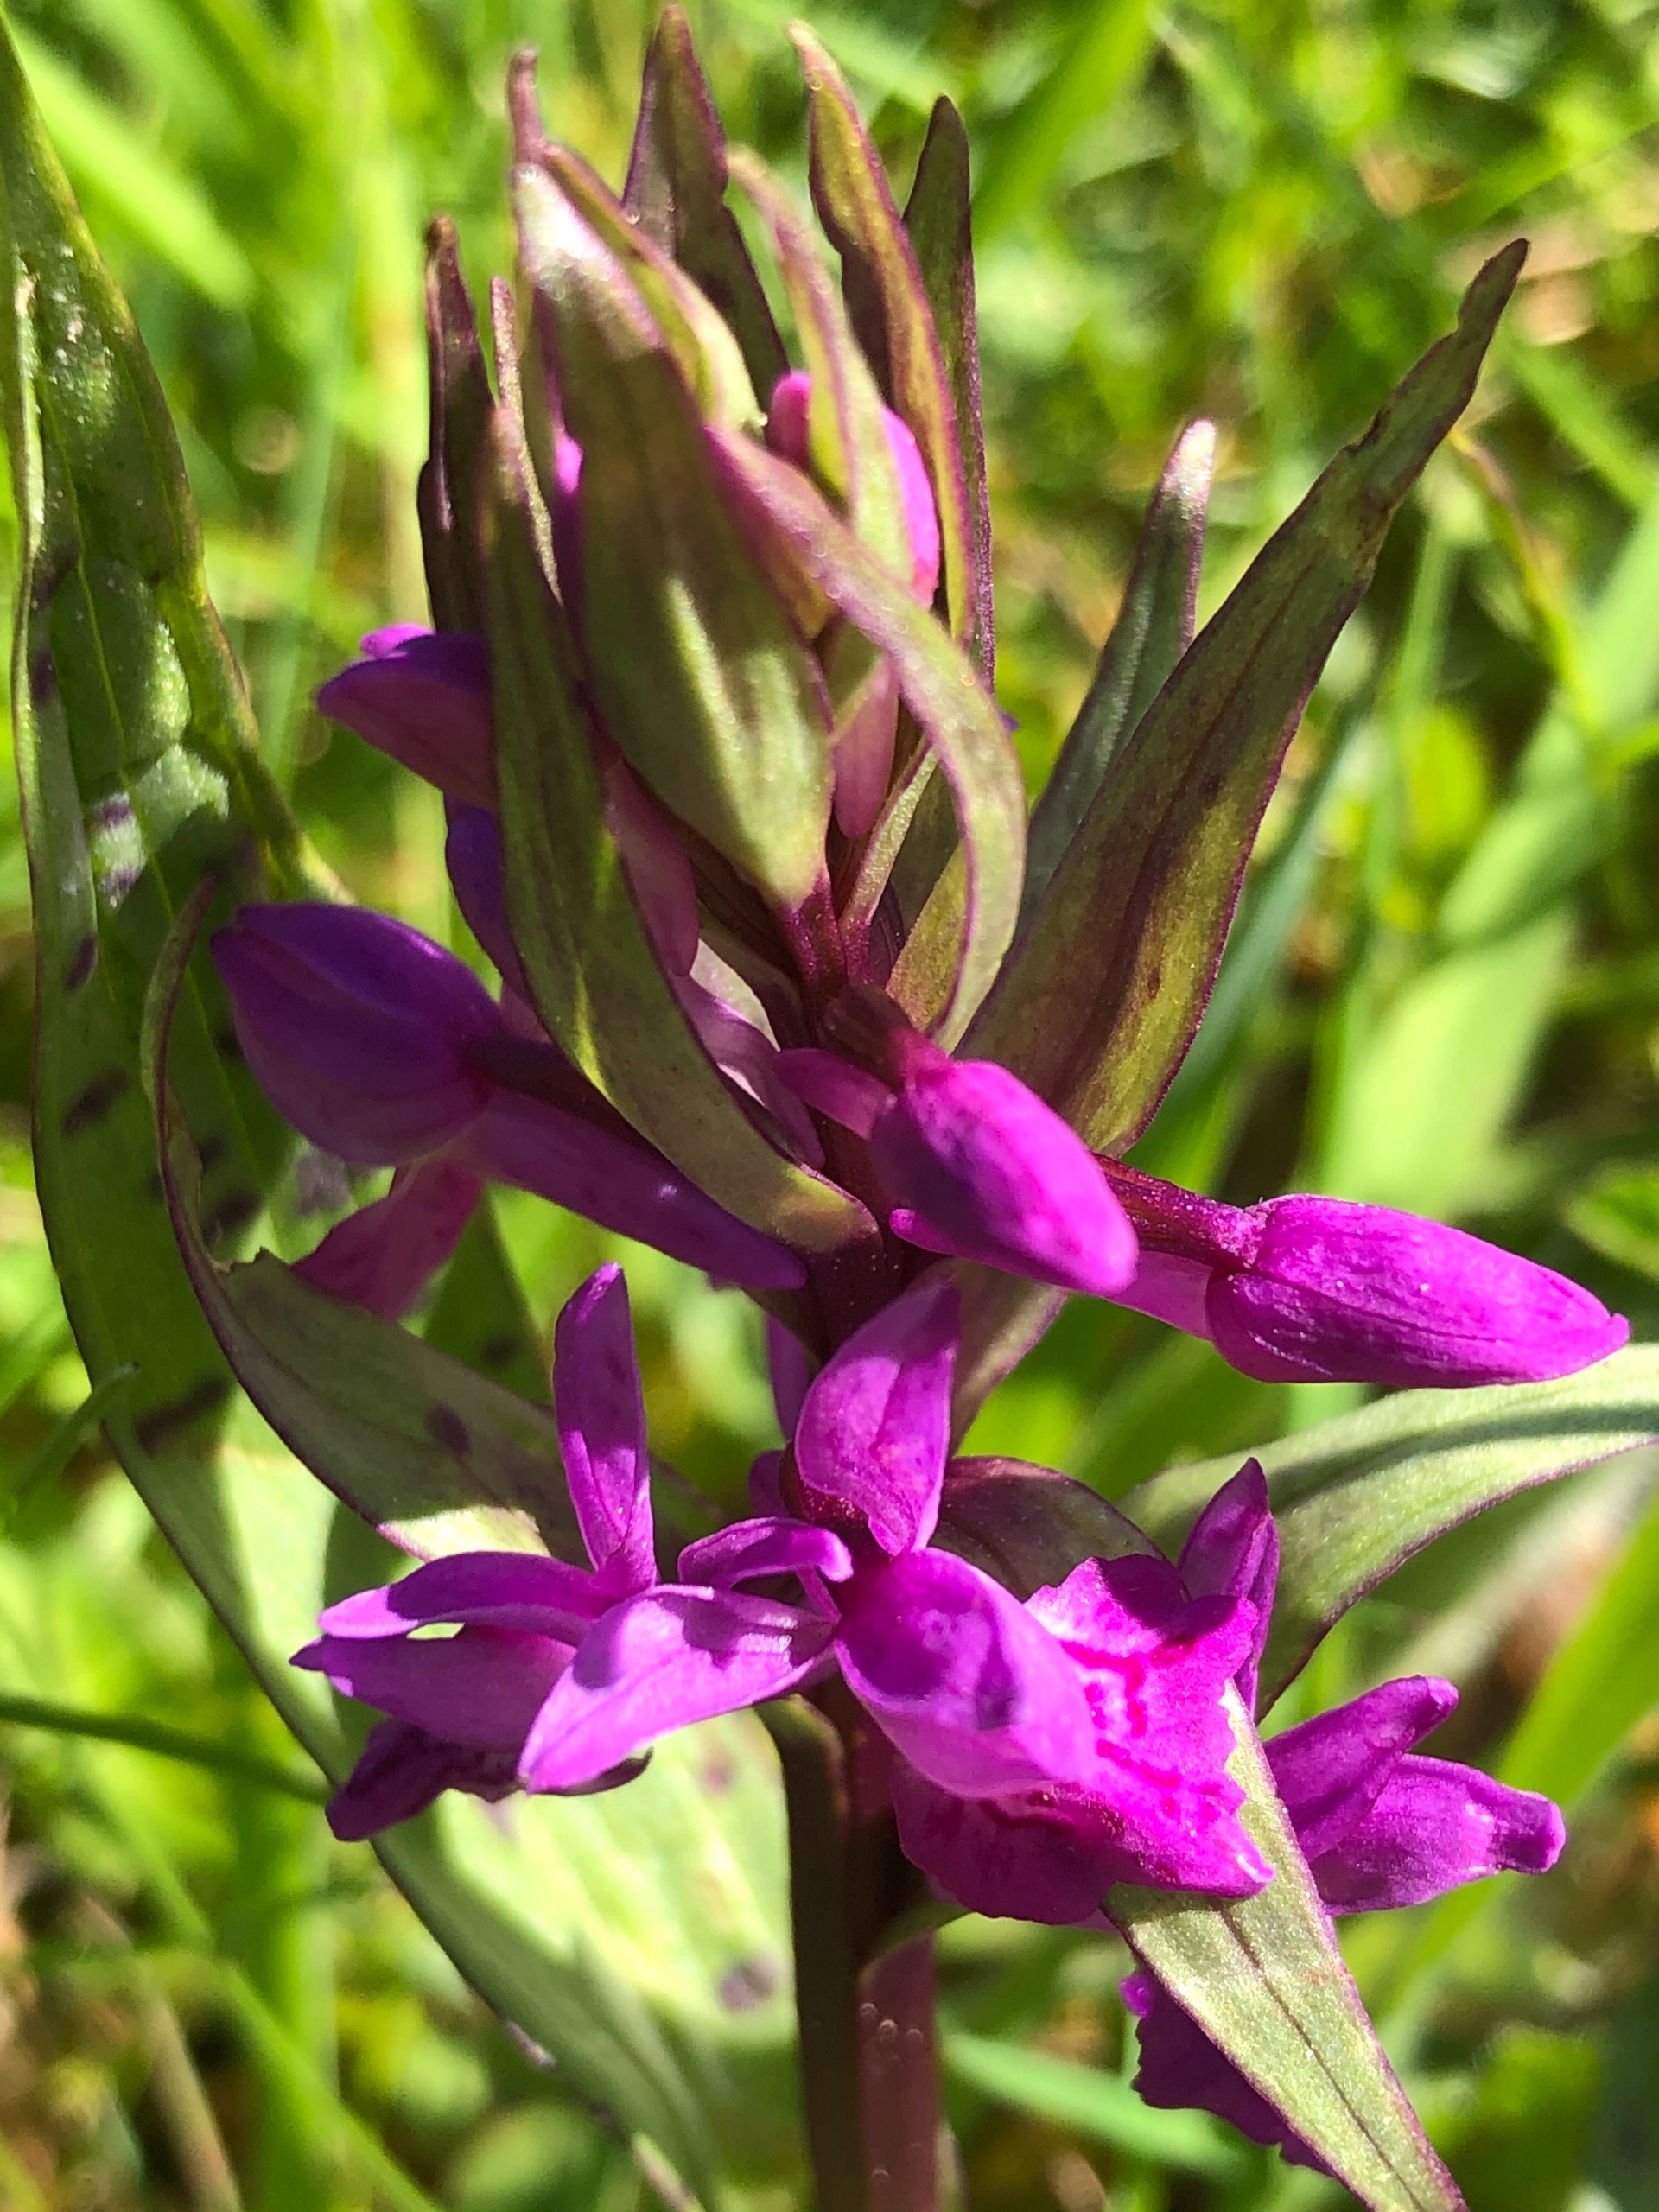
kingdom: Plantae
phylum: Tracheophyta
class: Liliopsida
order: Asparagales
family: Orchidaceae
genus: Dactylorhiza
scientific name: Dactylorhiza majalis
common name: Maj-gøgeurt
